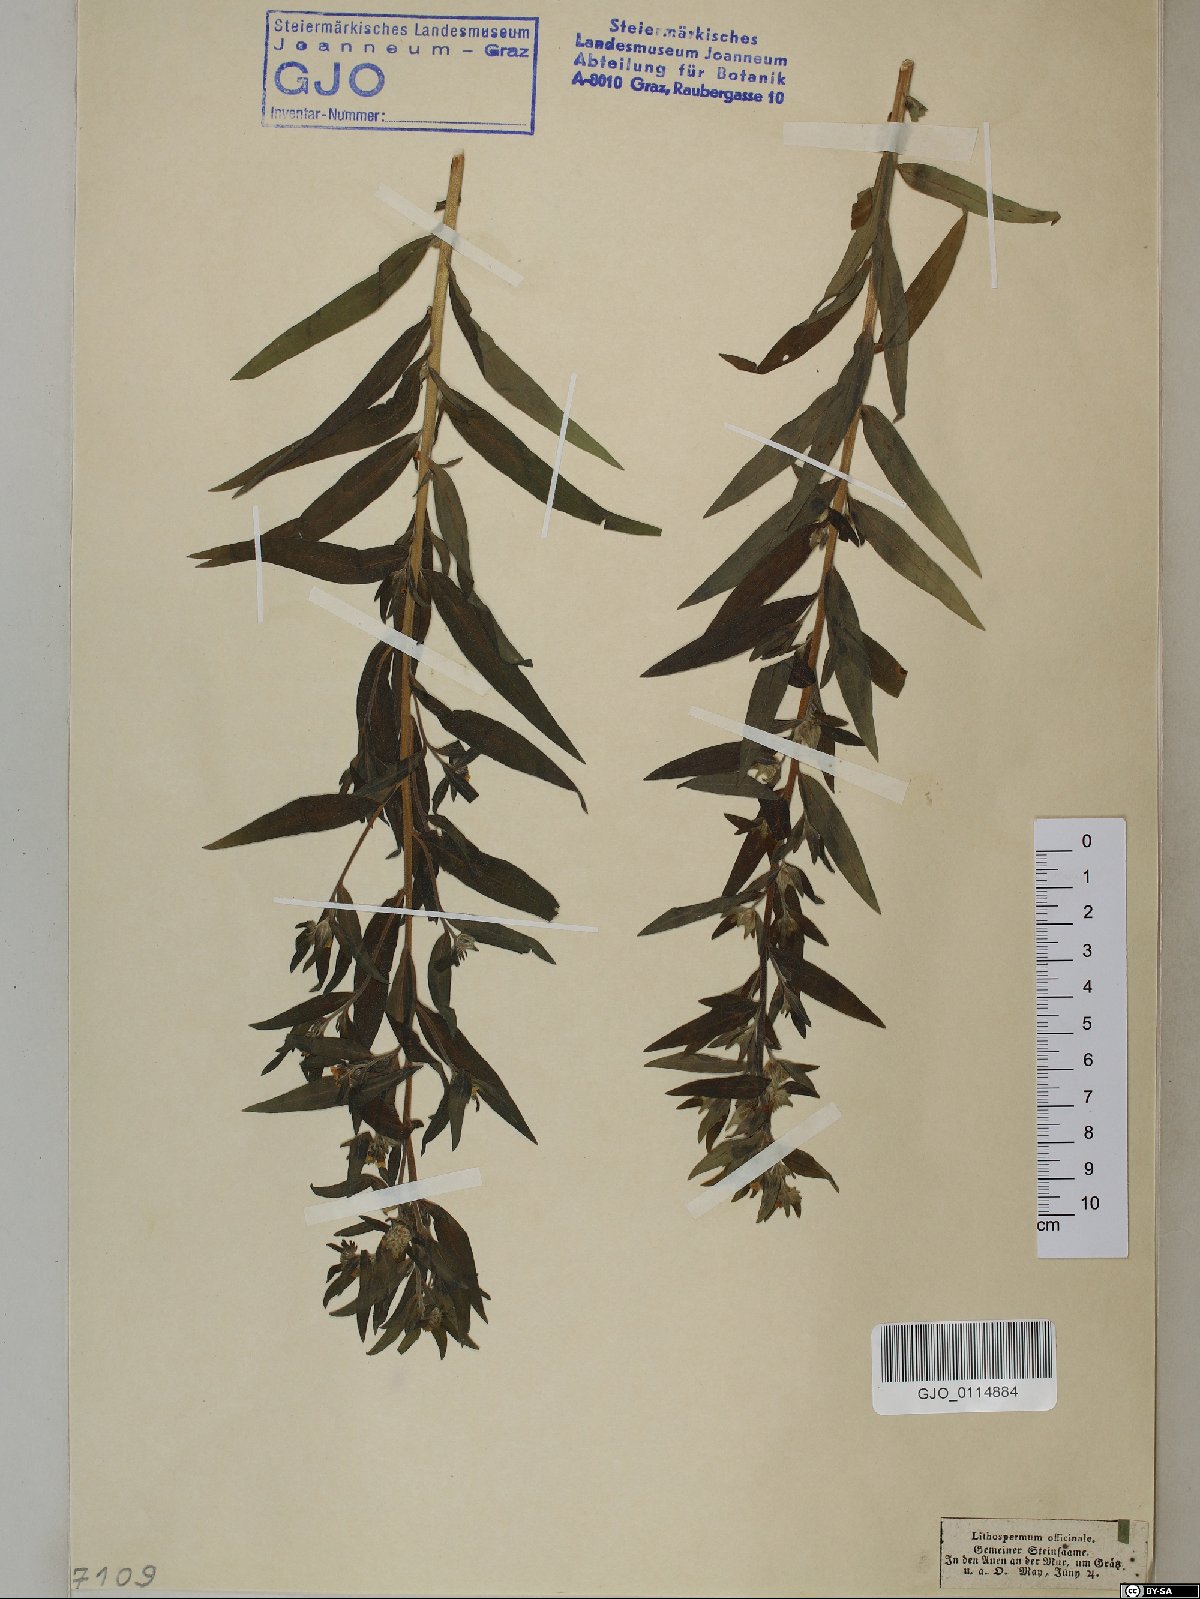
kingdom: Plantae
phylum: Tracheophyta
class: Magnoliopsida
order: Boraginales
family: Boraginaceae
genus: Lithospermum
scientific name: Lithospermum officinale
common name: Common gromwell
